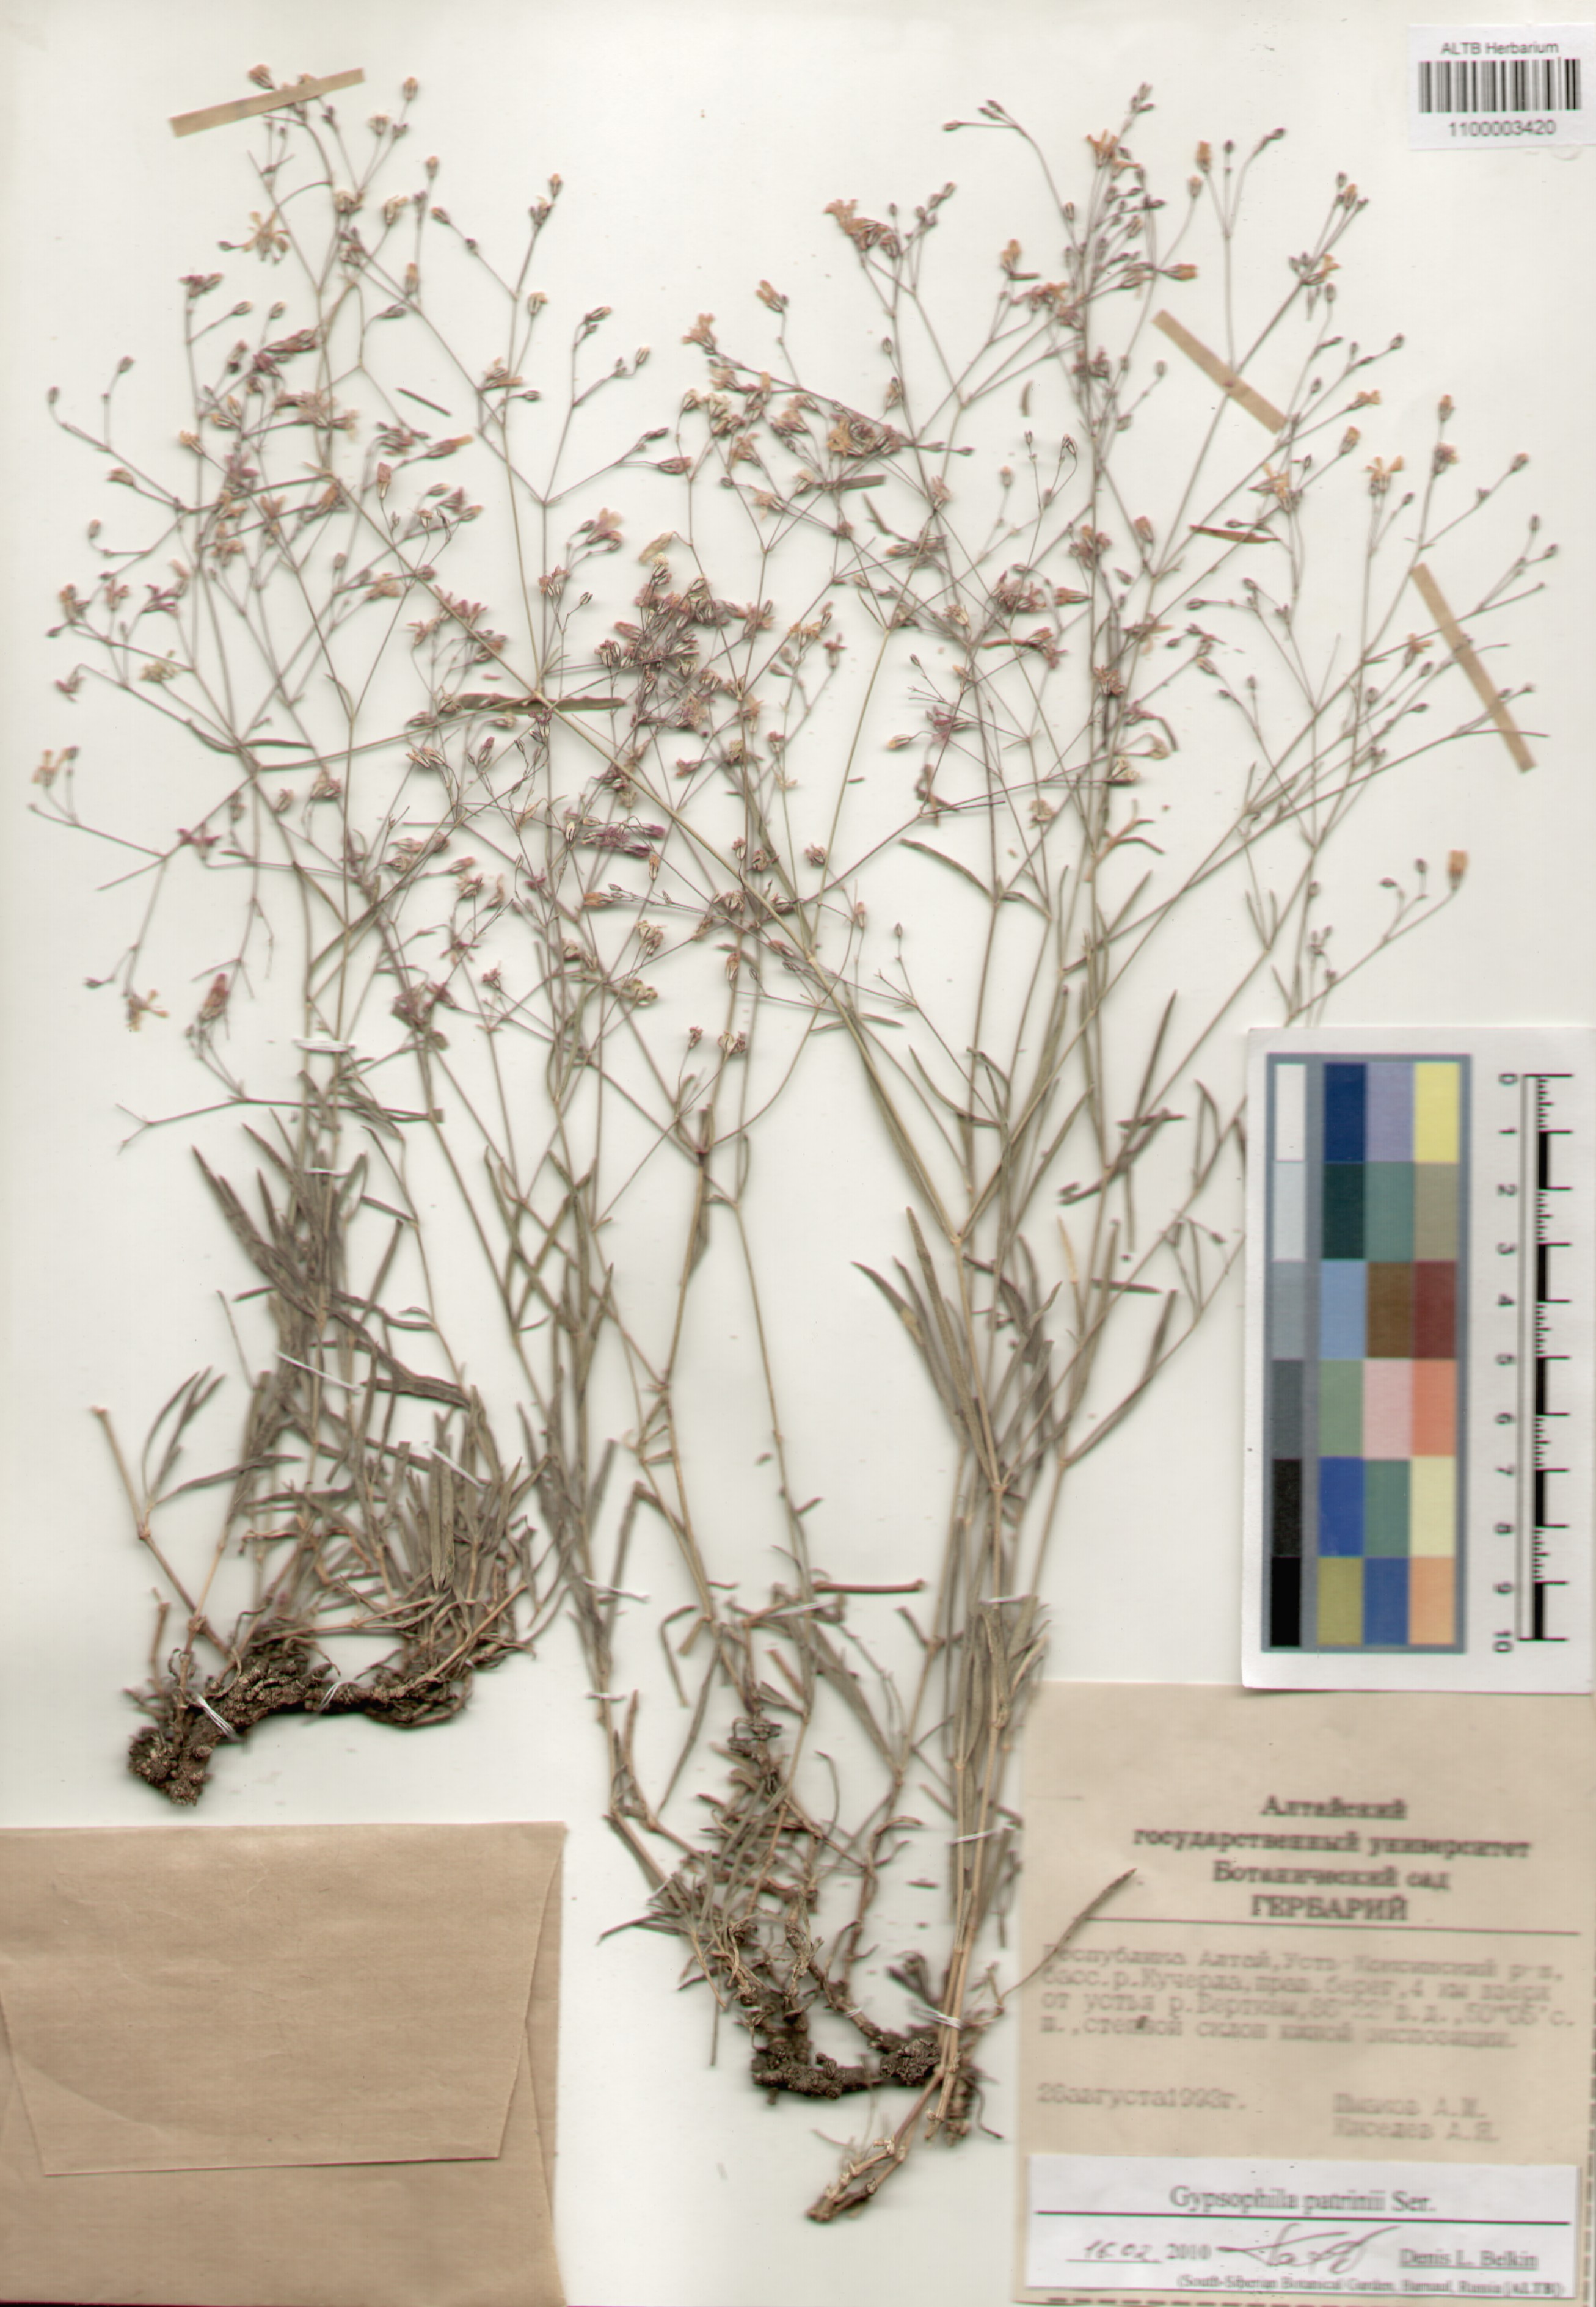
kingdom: Plantae
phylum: Tracheophyta
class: Magnoliopsida
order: Caryophyllales
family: Caryophyllaceae
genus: Gypsophila
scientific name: Gypsophila patrinii
